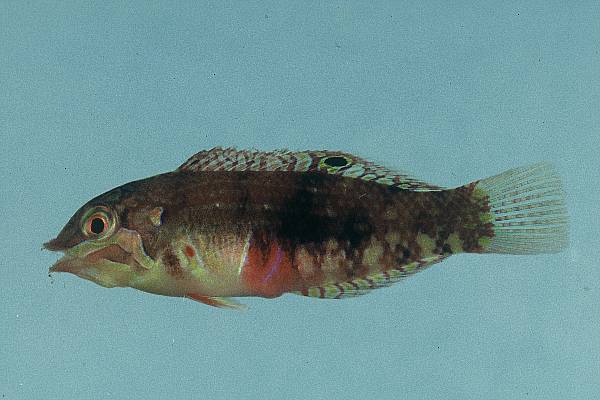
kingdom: Animalia
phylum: Chordata
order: Perciformes
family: Labridae
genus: Halichoeres
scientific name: Halichoeres nebulosus
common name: Clouded wrasse
